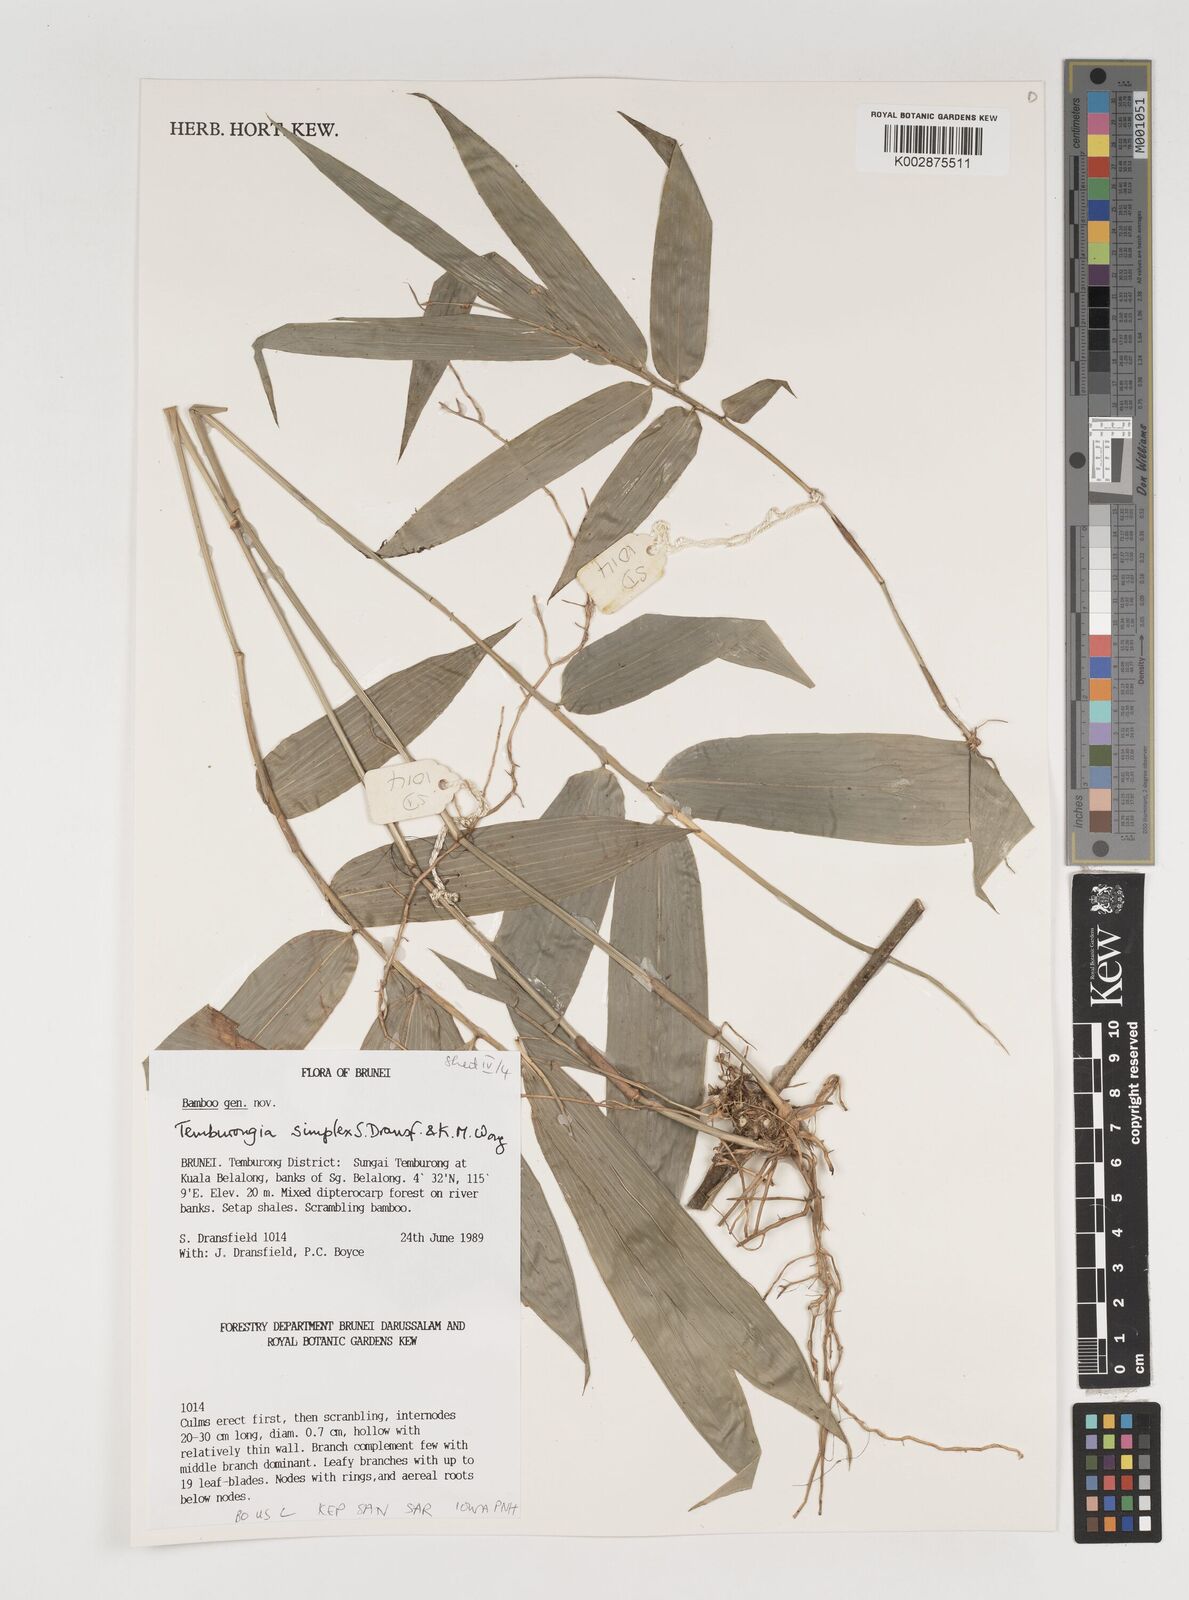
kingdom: Plantae
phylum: Tracheophyta
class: Liliopsida
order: Poales
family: Poaceae
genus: Temburongia
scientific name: Temburongia simplex
